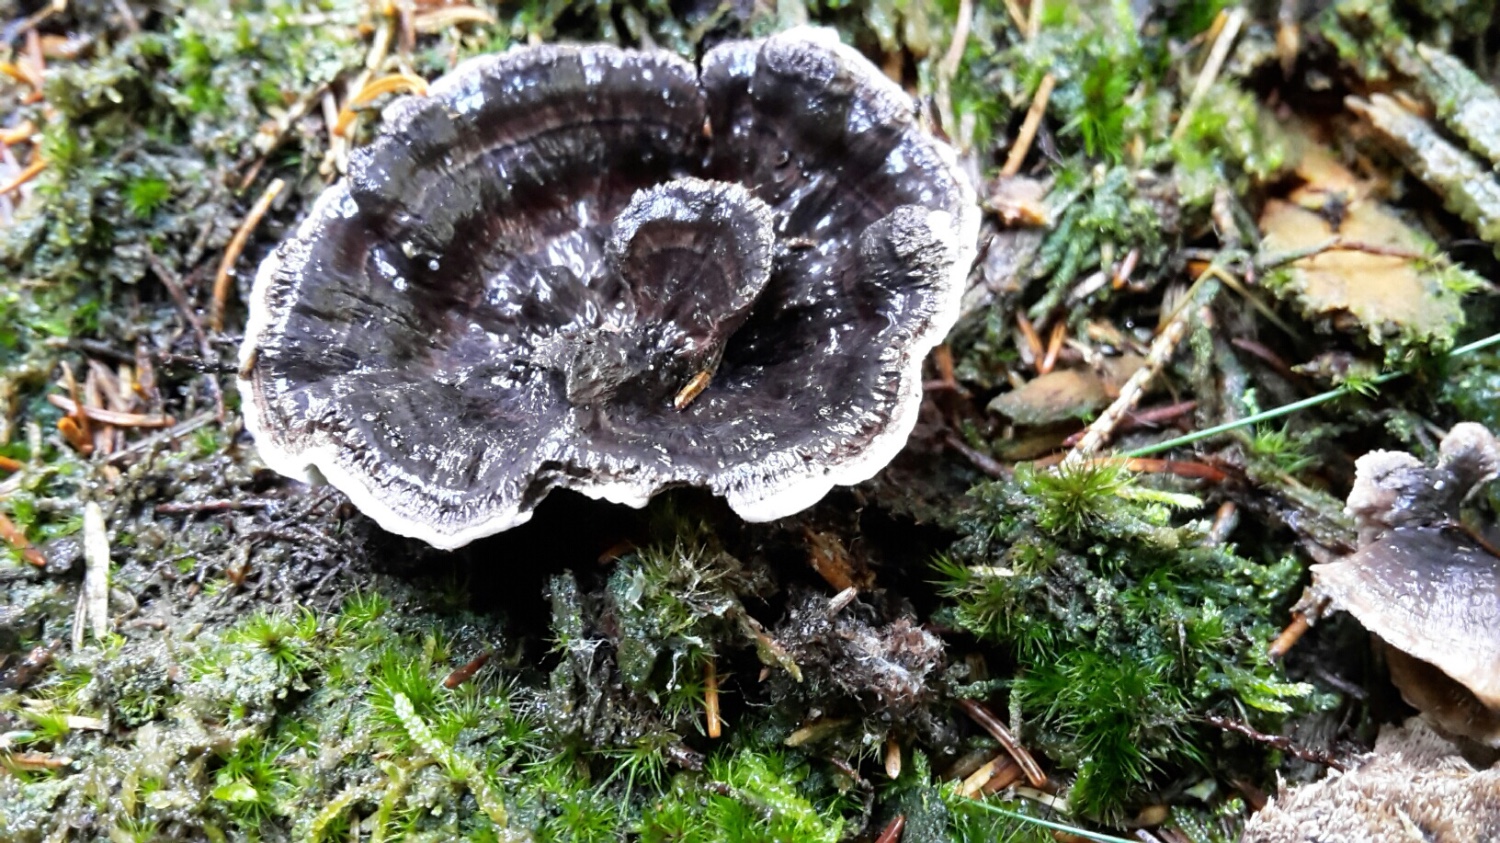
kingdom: Fungi
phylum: Basidiomycota
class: Agaricomycetes
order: Thelephorales
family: Thelephoraceae
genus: Phellodon
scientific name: Phellodon tomentosus
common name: vellugtende duftpigsvamp
